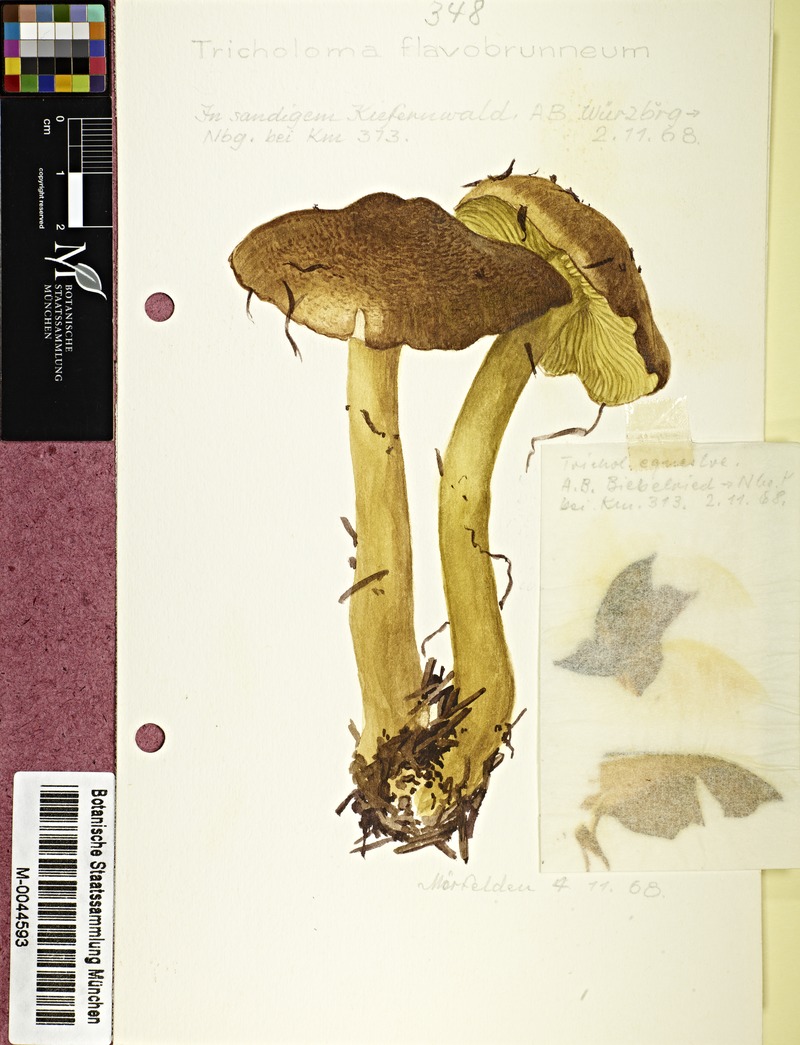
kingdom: Fungi
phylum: Basidiomycota
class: Agaricomycetes
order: Agaricales
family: Tricholomataceae
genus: Tricholoma
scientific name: Tricholoma fulvum
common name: Birch knight
